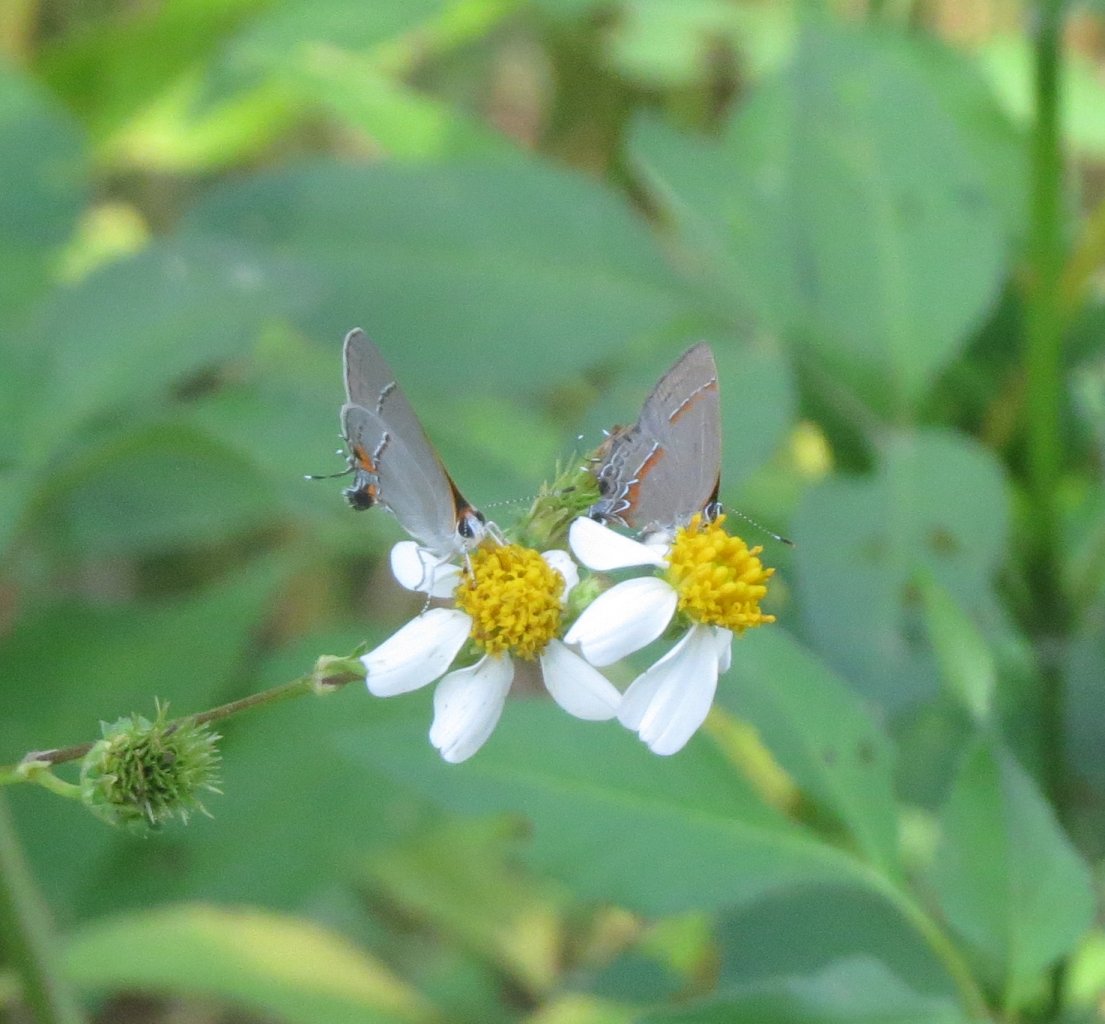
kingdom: Animalia
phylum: Arthropoda
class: Insecta
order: Lepidoptera
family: Lycaenidae
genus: Calycopis
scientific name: Calycopis cecrops
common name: Red-banded Hairstreak
